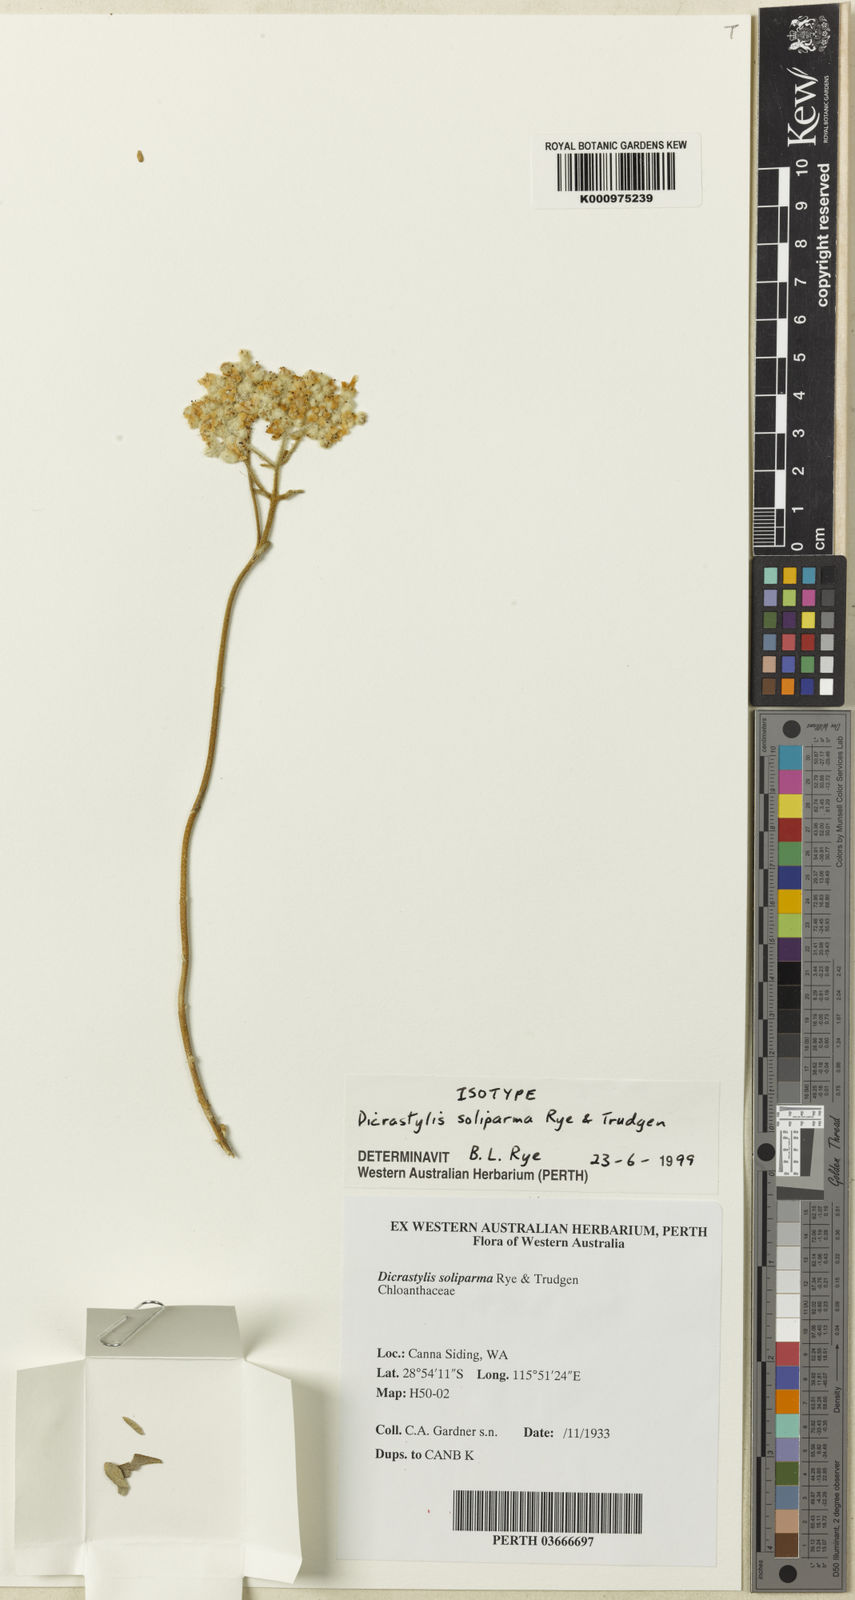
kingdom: Plantae
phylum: Tracheophyta
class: Magnoliopsida
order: Lamiales
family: Lamiaceae
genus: Dicrastylis
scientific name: Dicrastylis soliparma
